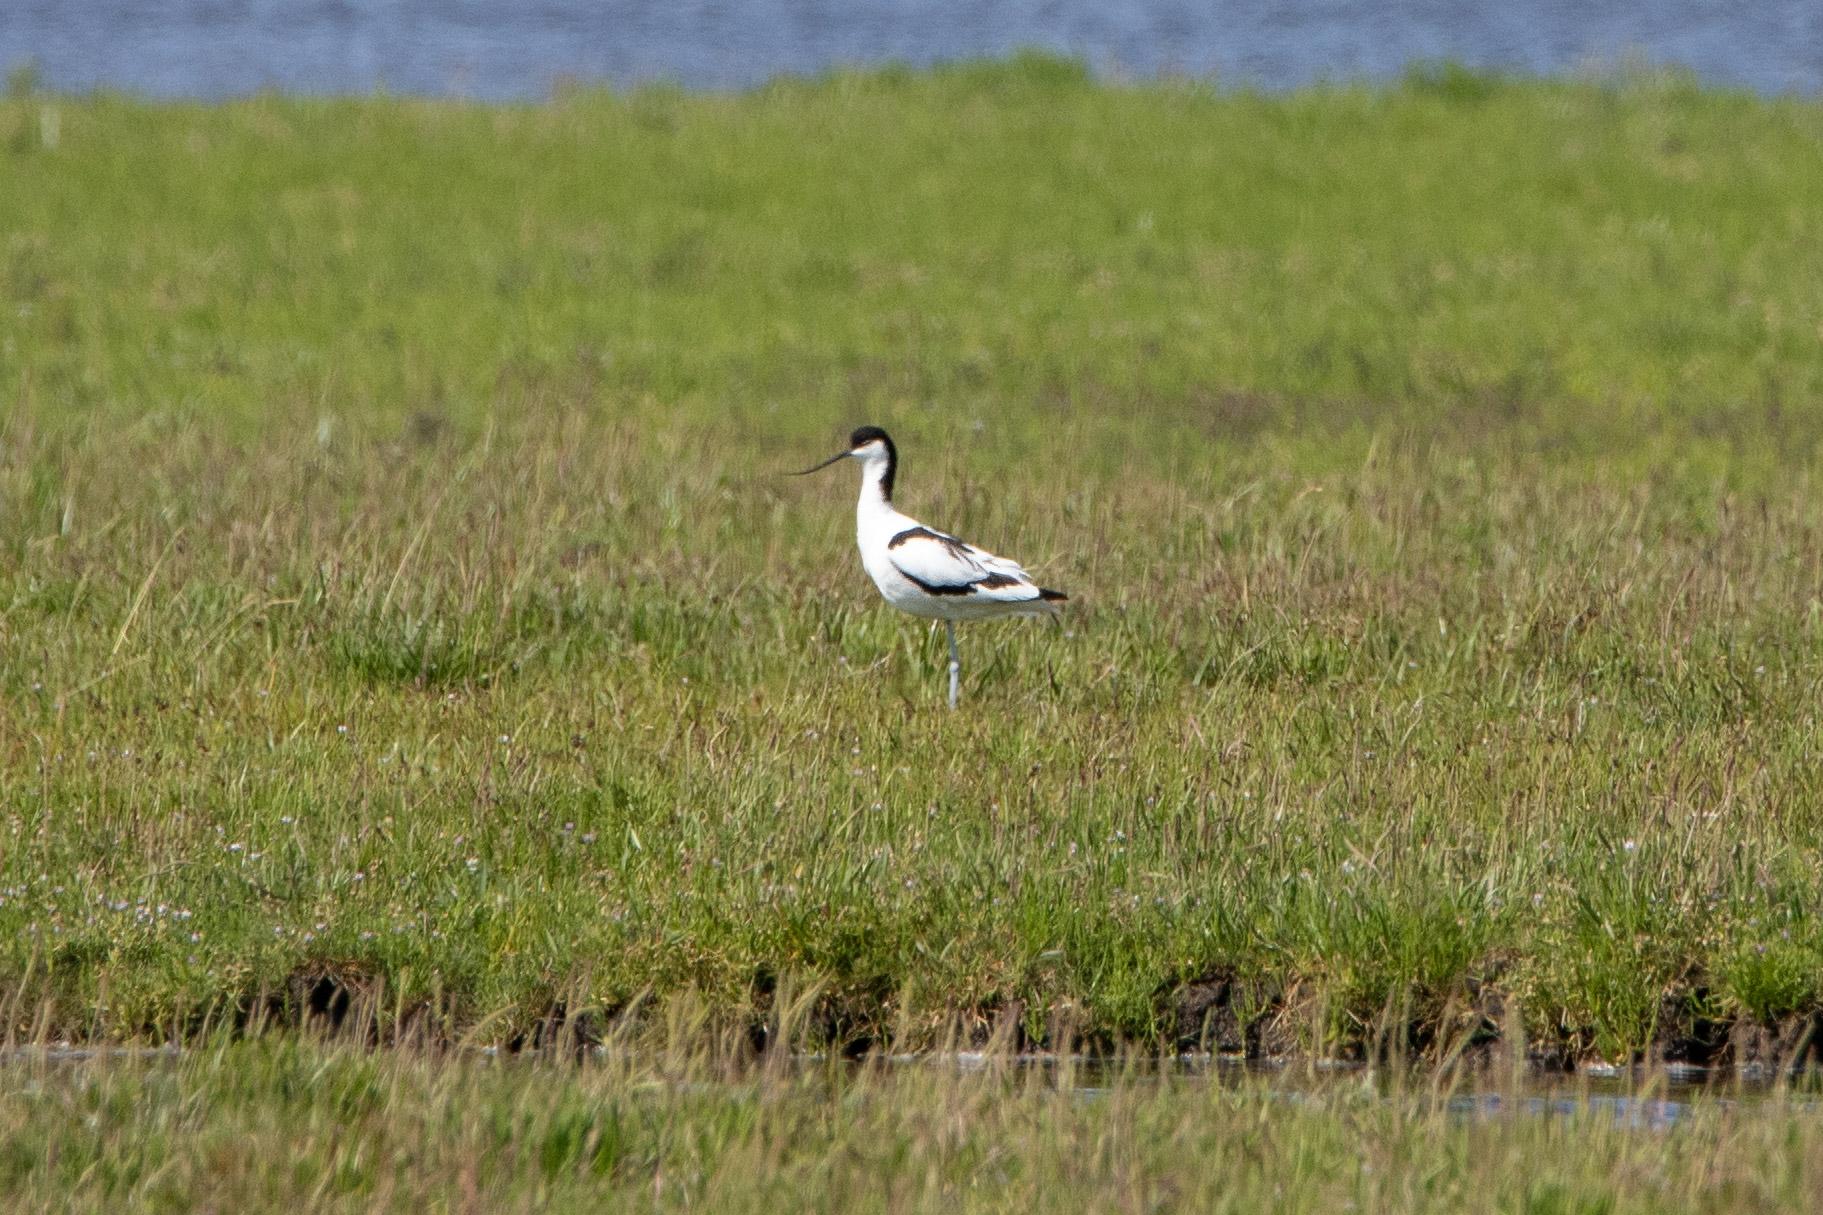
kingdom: Animalia
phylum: Chordata
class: Aves
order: Charadriiformes
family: Recurvirostridae
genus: Recurvirostra
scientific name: Recurvirostra avosetta
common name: Klyde
